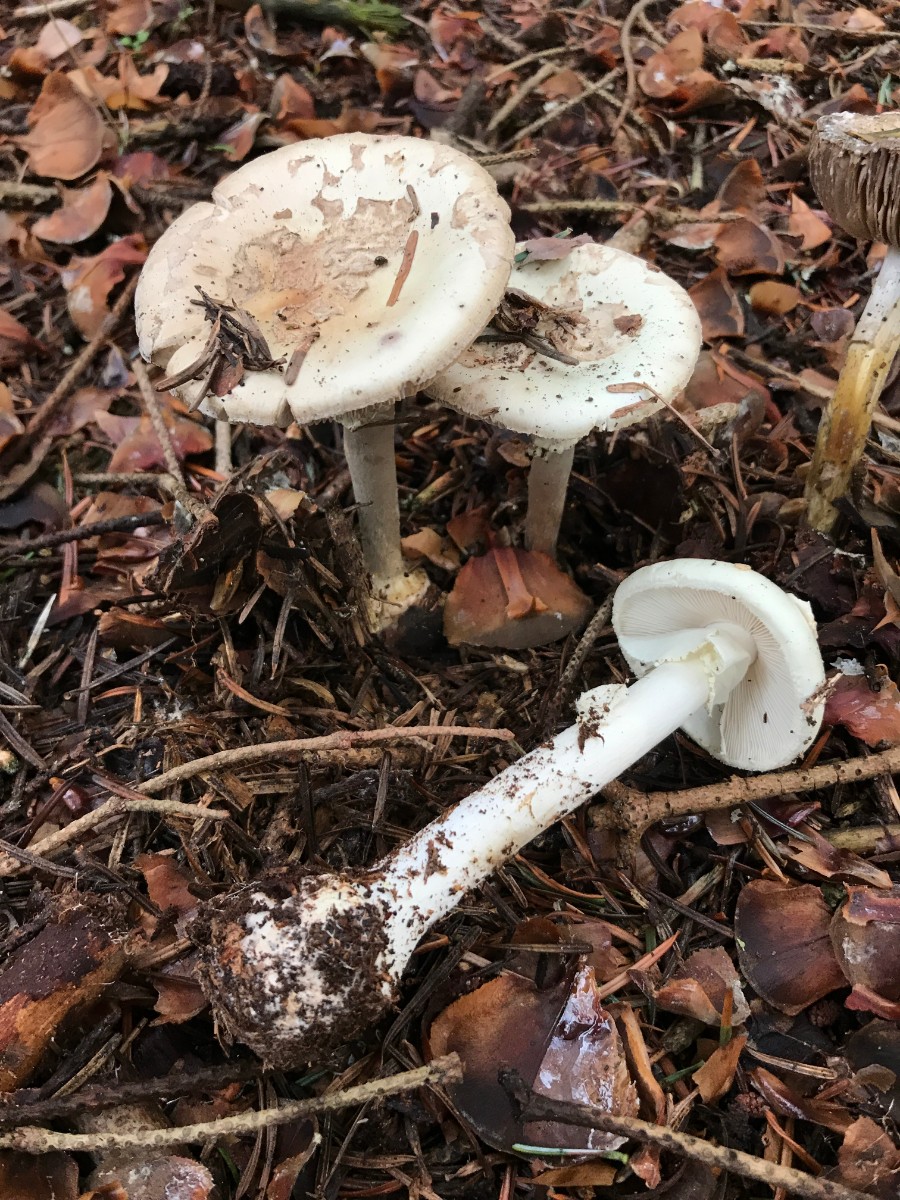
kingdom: Fungi
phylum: Basidiomycota
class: Agaricomycetes
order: Agaricales
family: Amanitaceae
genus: Amanita
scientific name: Amanita citrina
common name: kugleknoldet fluesvamp
